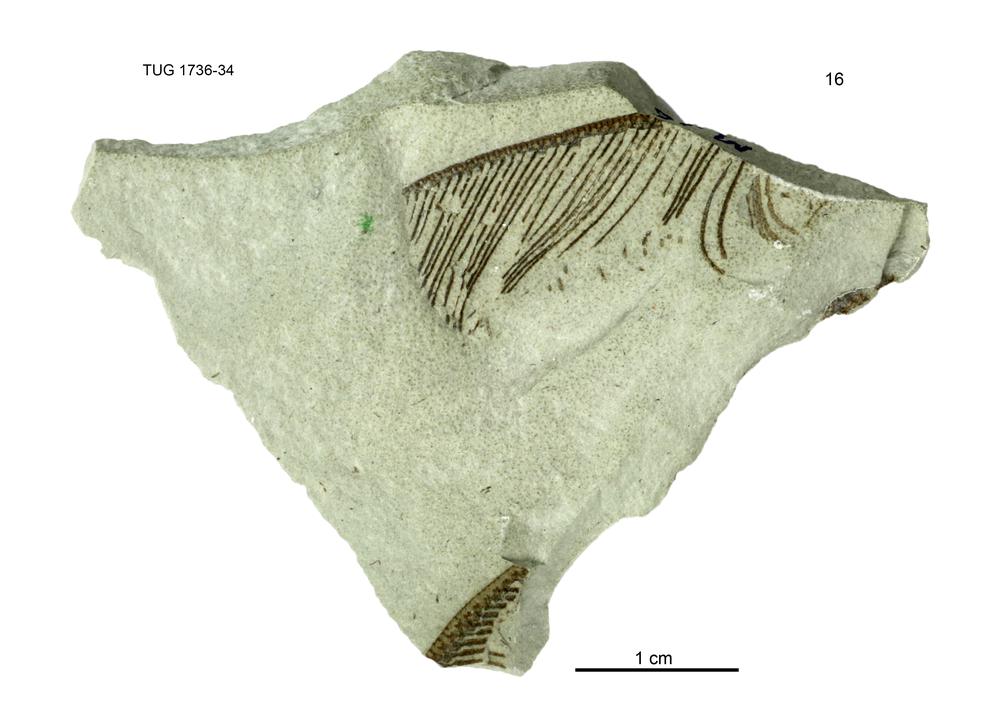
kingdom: Animalia
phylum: Echinodermata
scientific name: Echinodermata
